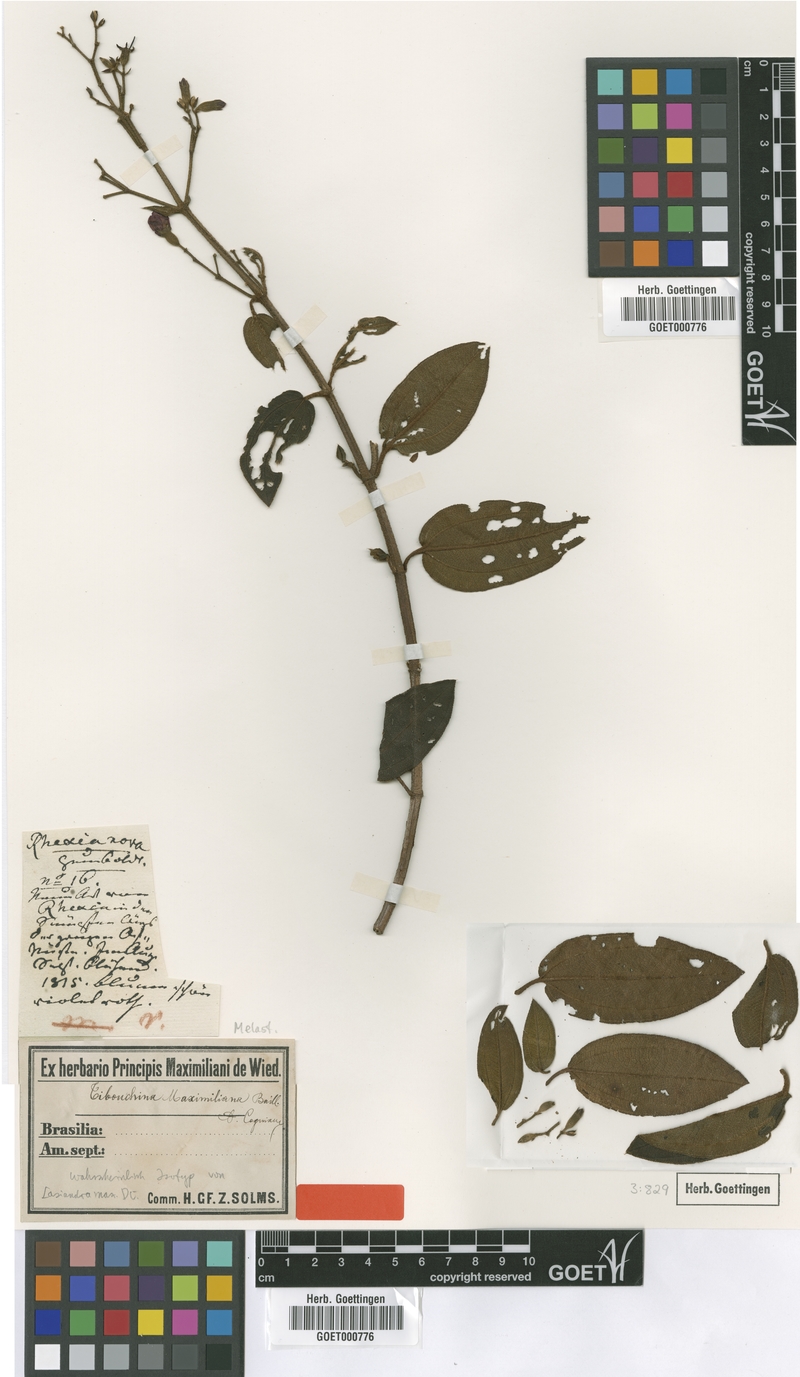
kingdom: Plantae
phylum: Tracheophyta
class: Magnoliopsida
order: Myrtales
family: Melastomataceae
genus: Pleroma
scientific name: Pleroma maximilianum
